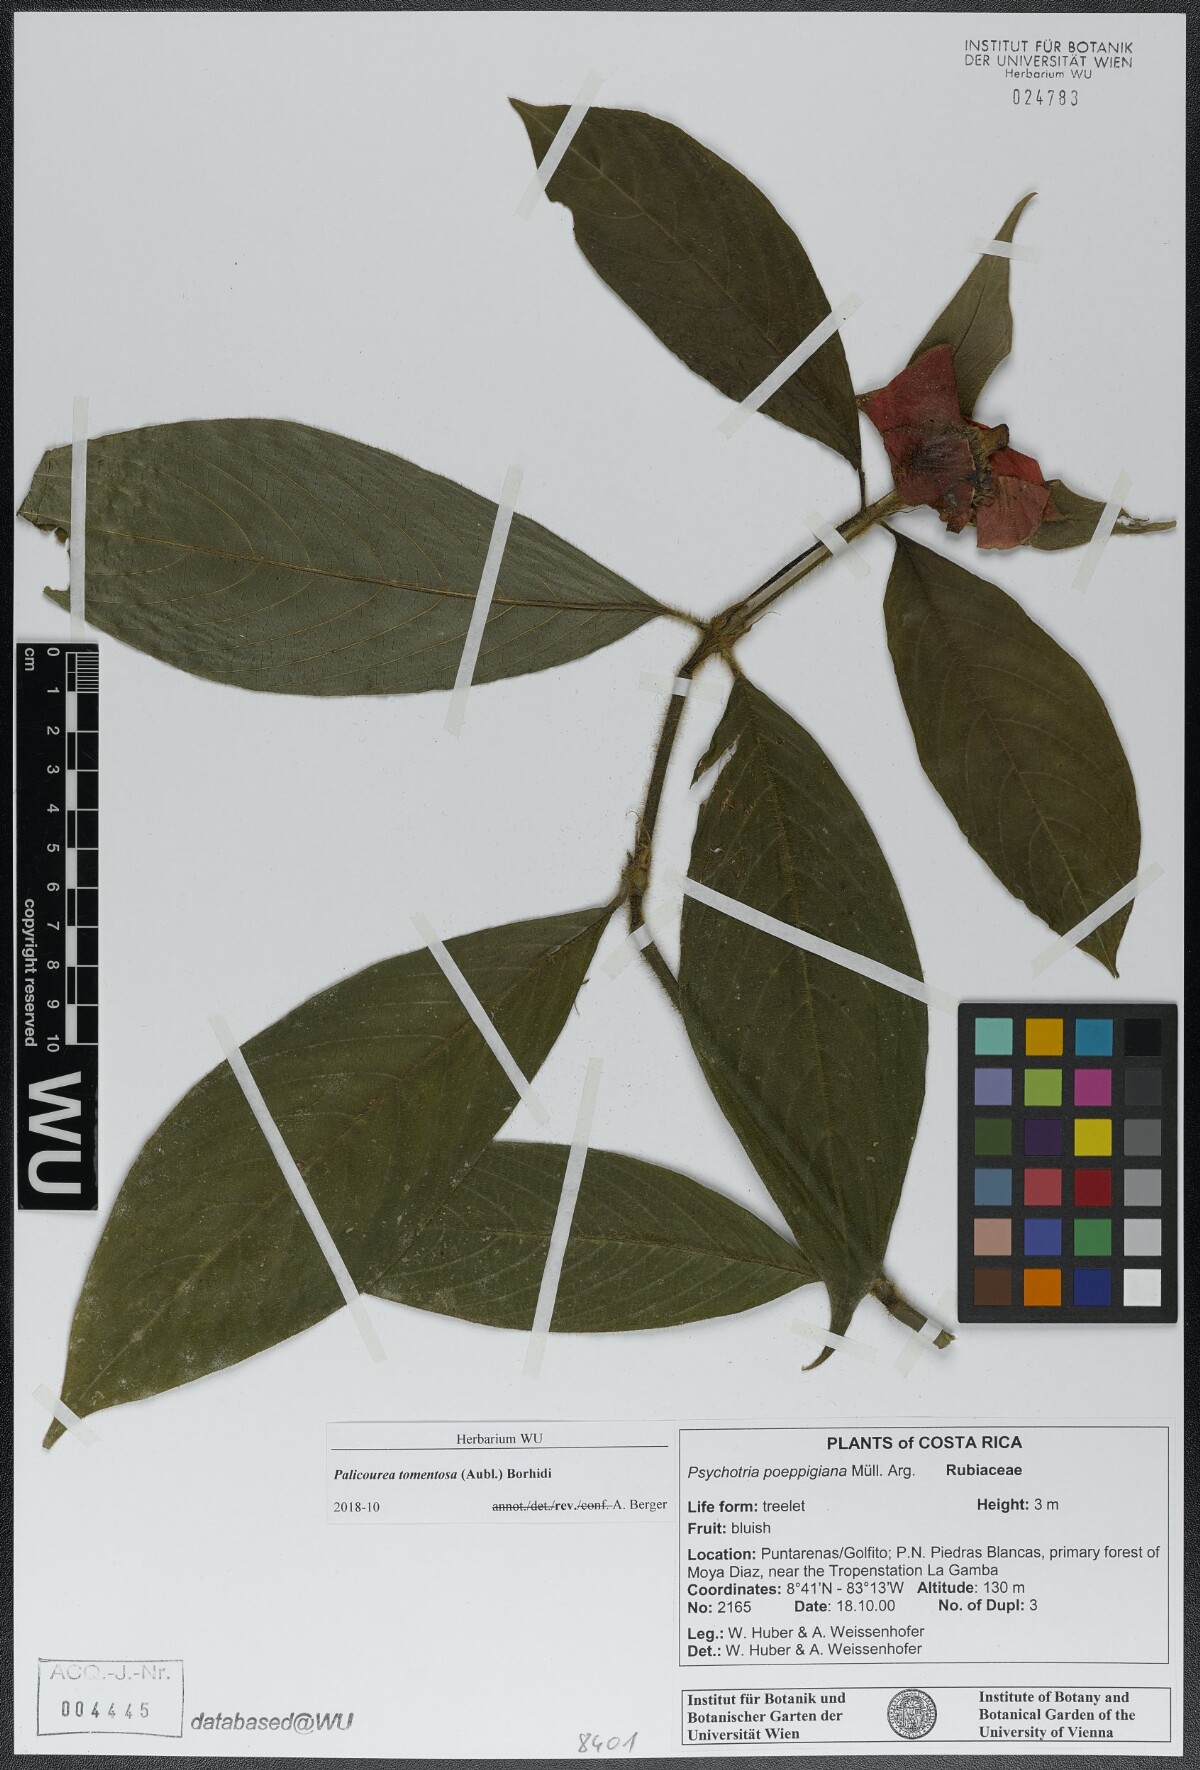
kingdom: Plantae
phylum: Tracheophyta
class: Magnoliopsida
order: Gentianales
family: Rubiaceae
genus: Palicourea
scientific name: Palicourea tomentosa
